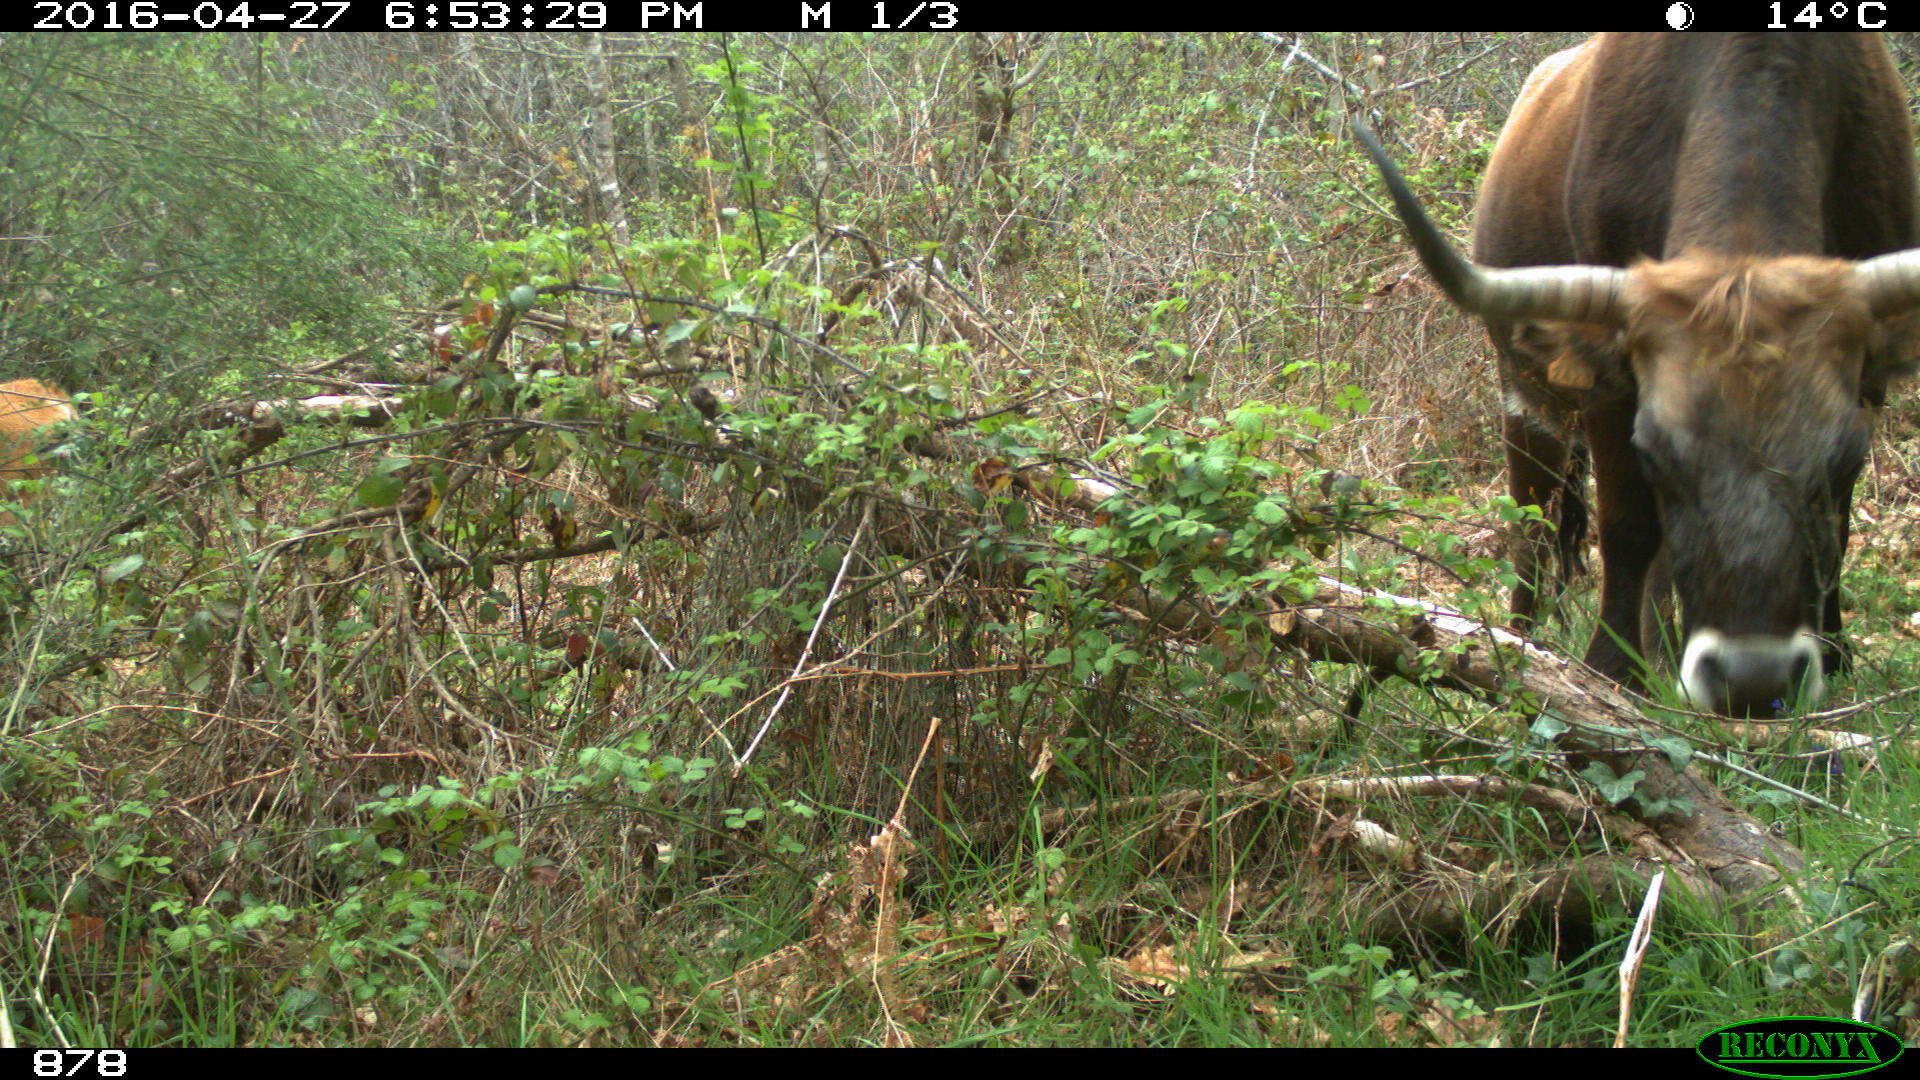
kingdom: Animalia
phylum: Chordata
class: Mammalia
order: Artiodactyla
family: Bovidae
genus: Bos
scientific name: Bos taurus
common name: Domesticated cattle
